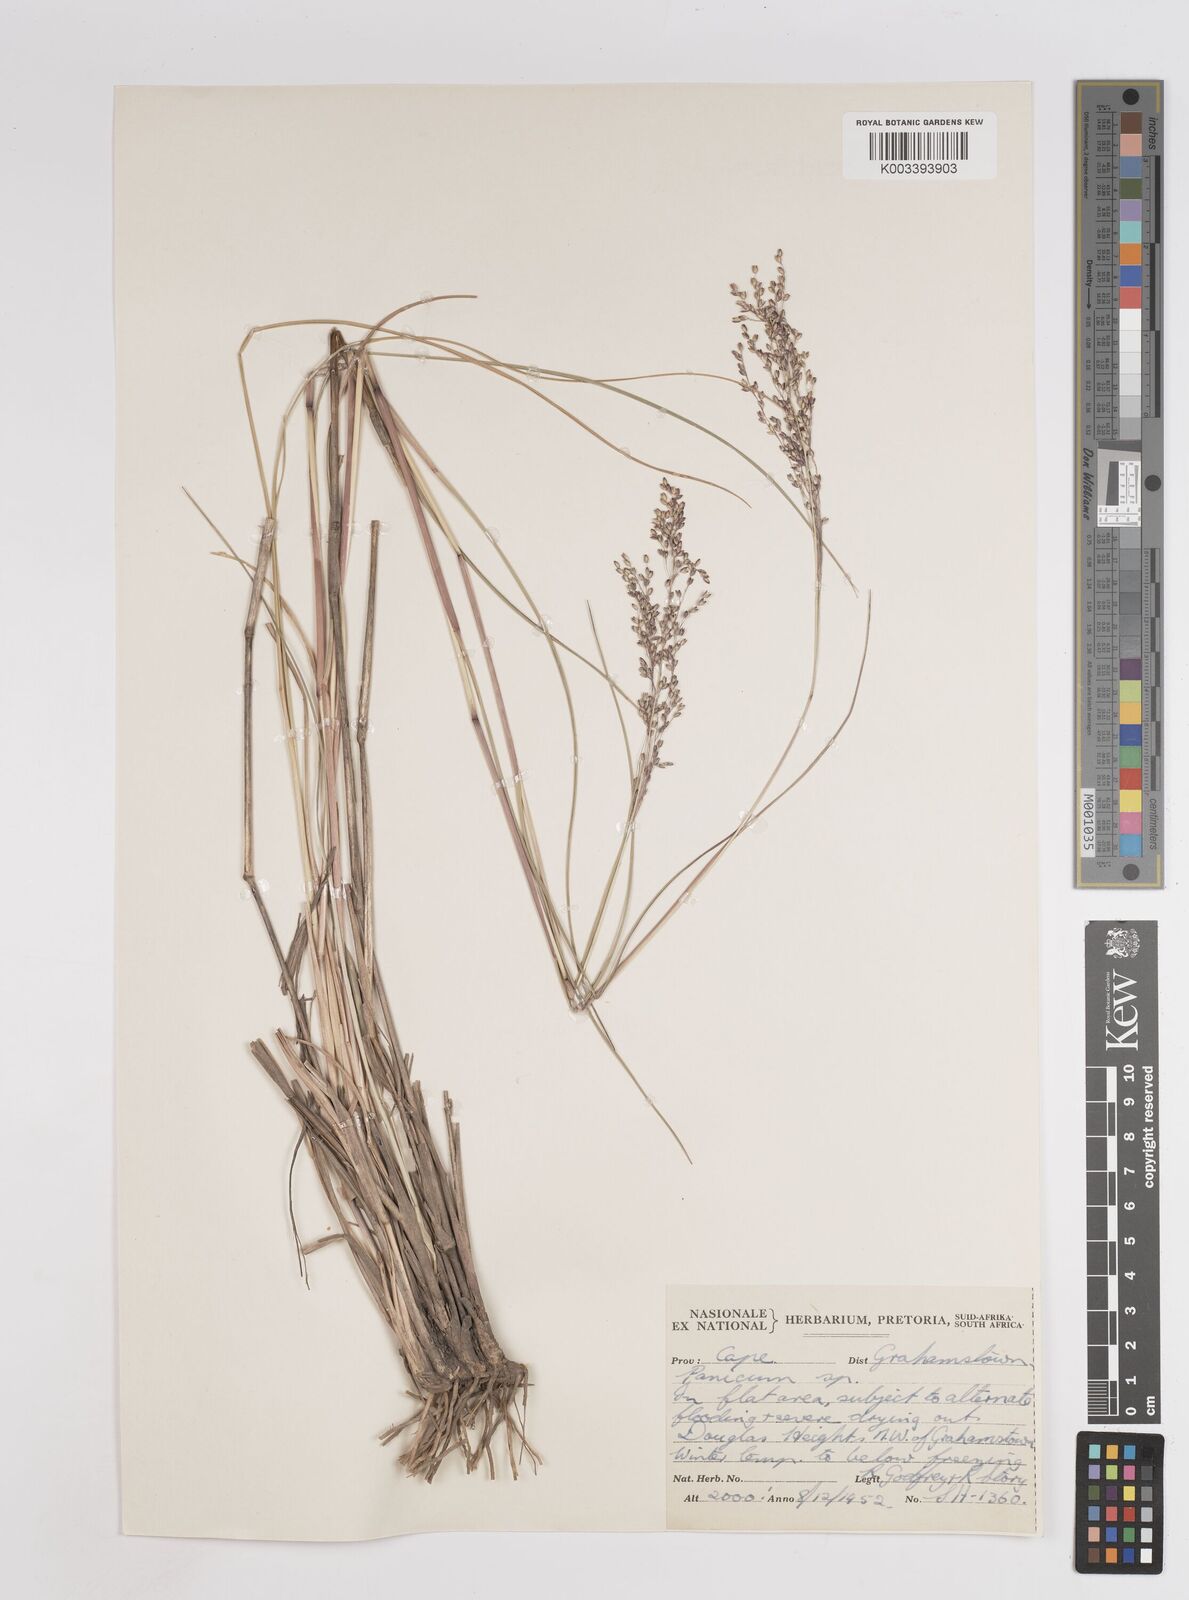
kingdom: Plantae
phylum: Tracheophyta
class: Liliopsida
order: Poales
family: Poaceae
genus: Panicum
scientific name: Panicum stapfianum
